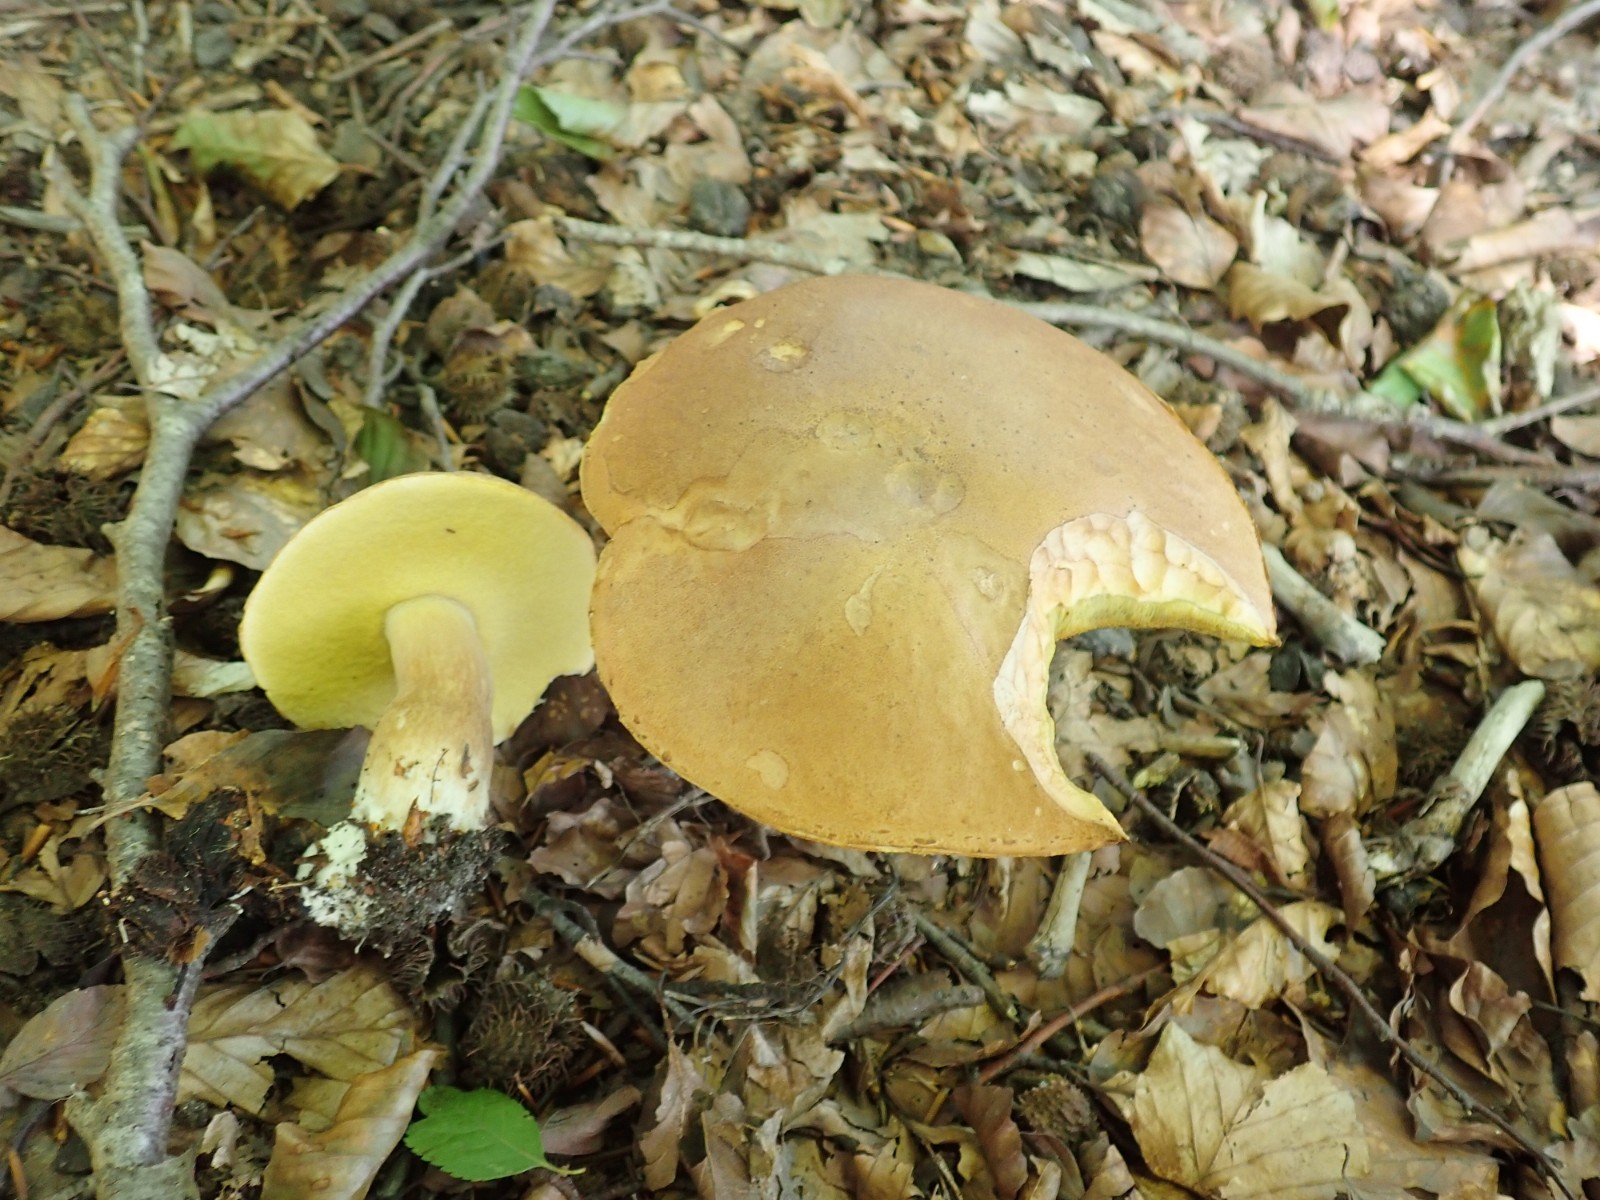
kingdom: Fungi
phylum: Basidiomycota
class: Agaricomycetes
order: Boletales
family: Boletaceae
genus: Boletus
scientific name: Boletus reticulatus
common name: sommer-rørhat
